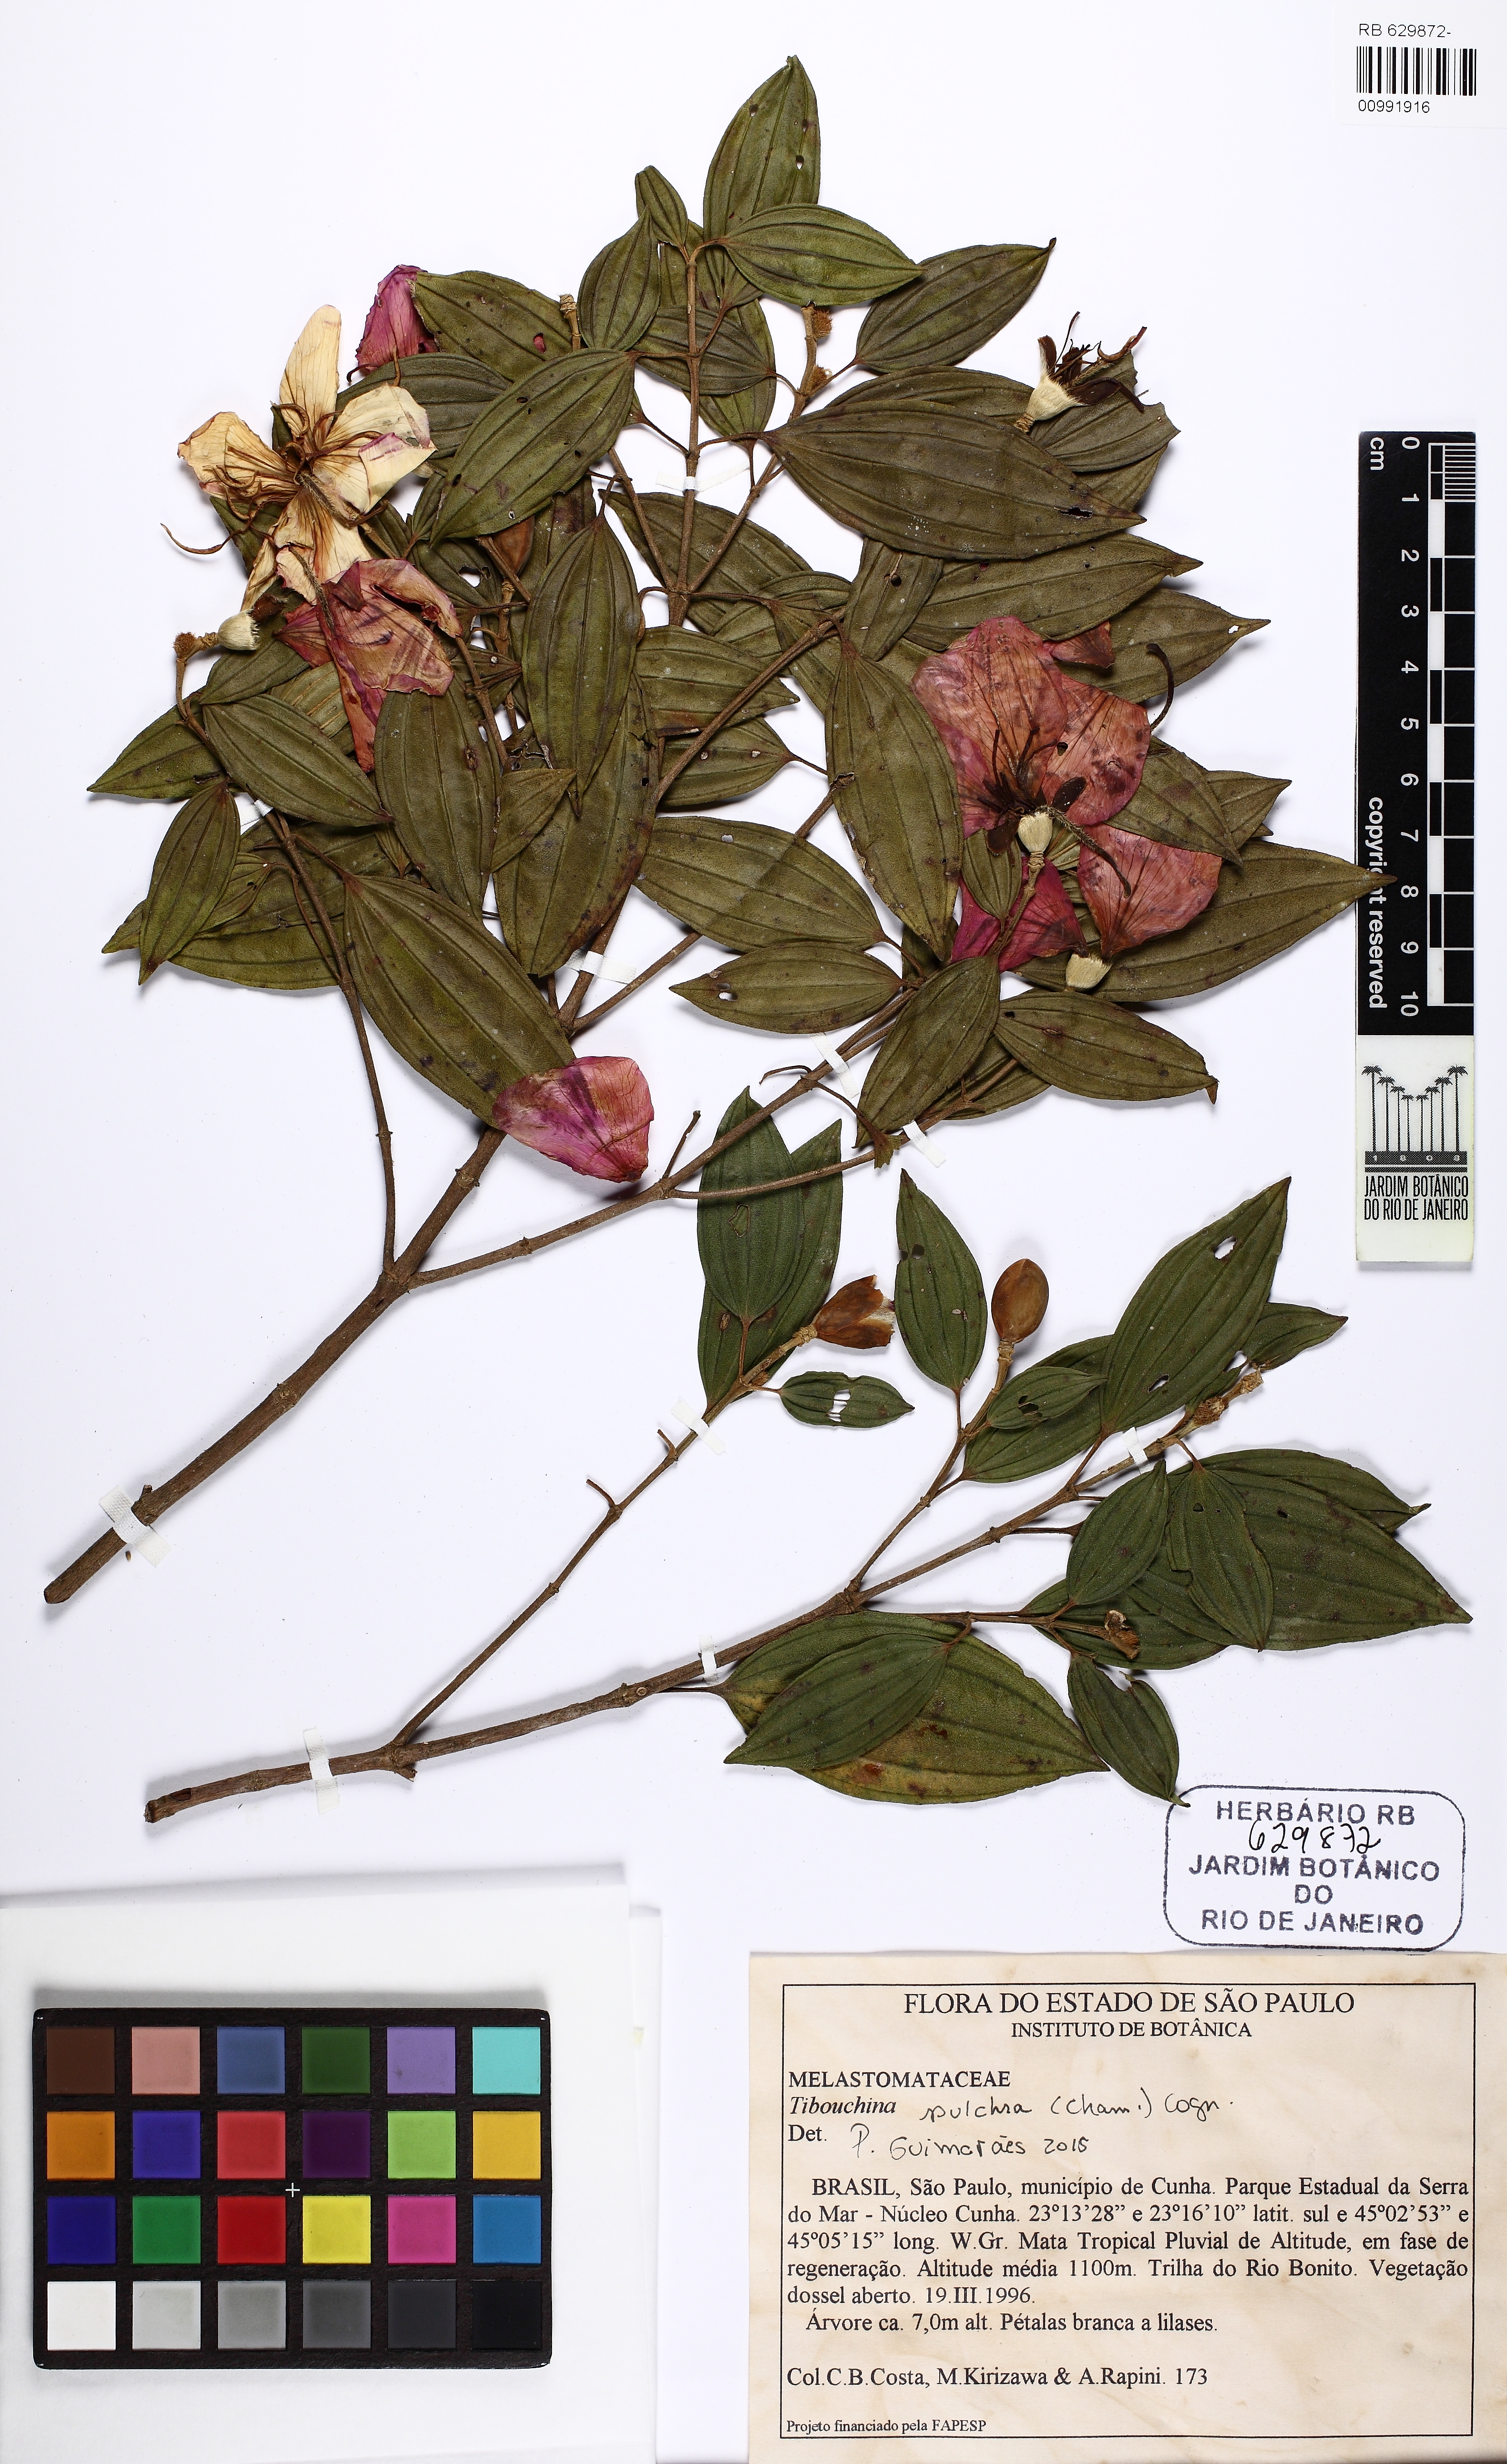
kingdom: Plantae
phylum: Tracheophyta
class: Magnoliopsida
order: Myrtales
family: Melastomataceae
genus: Pleroma
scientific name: Pleroma raddianum
